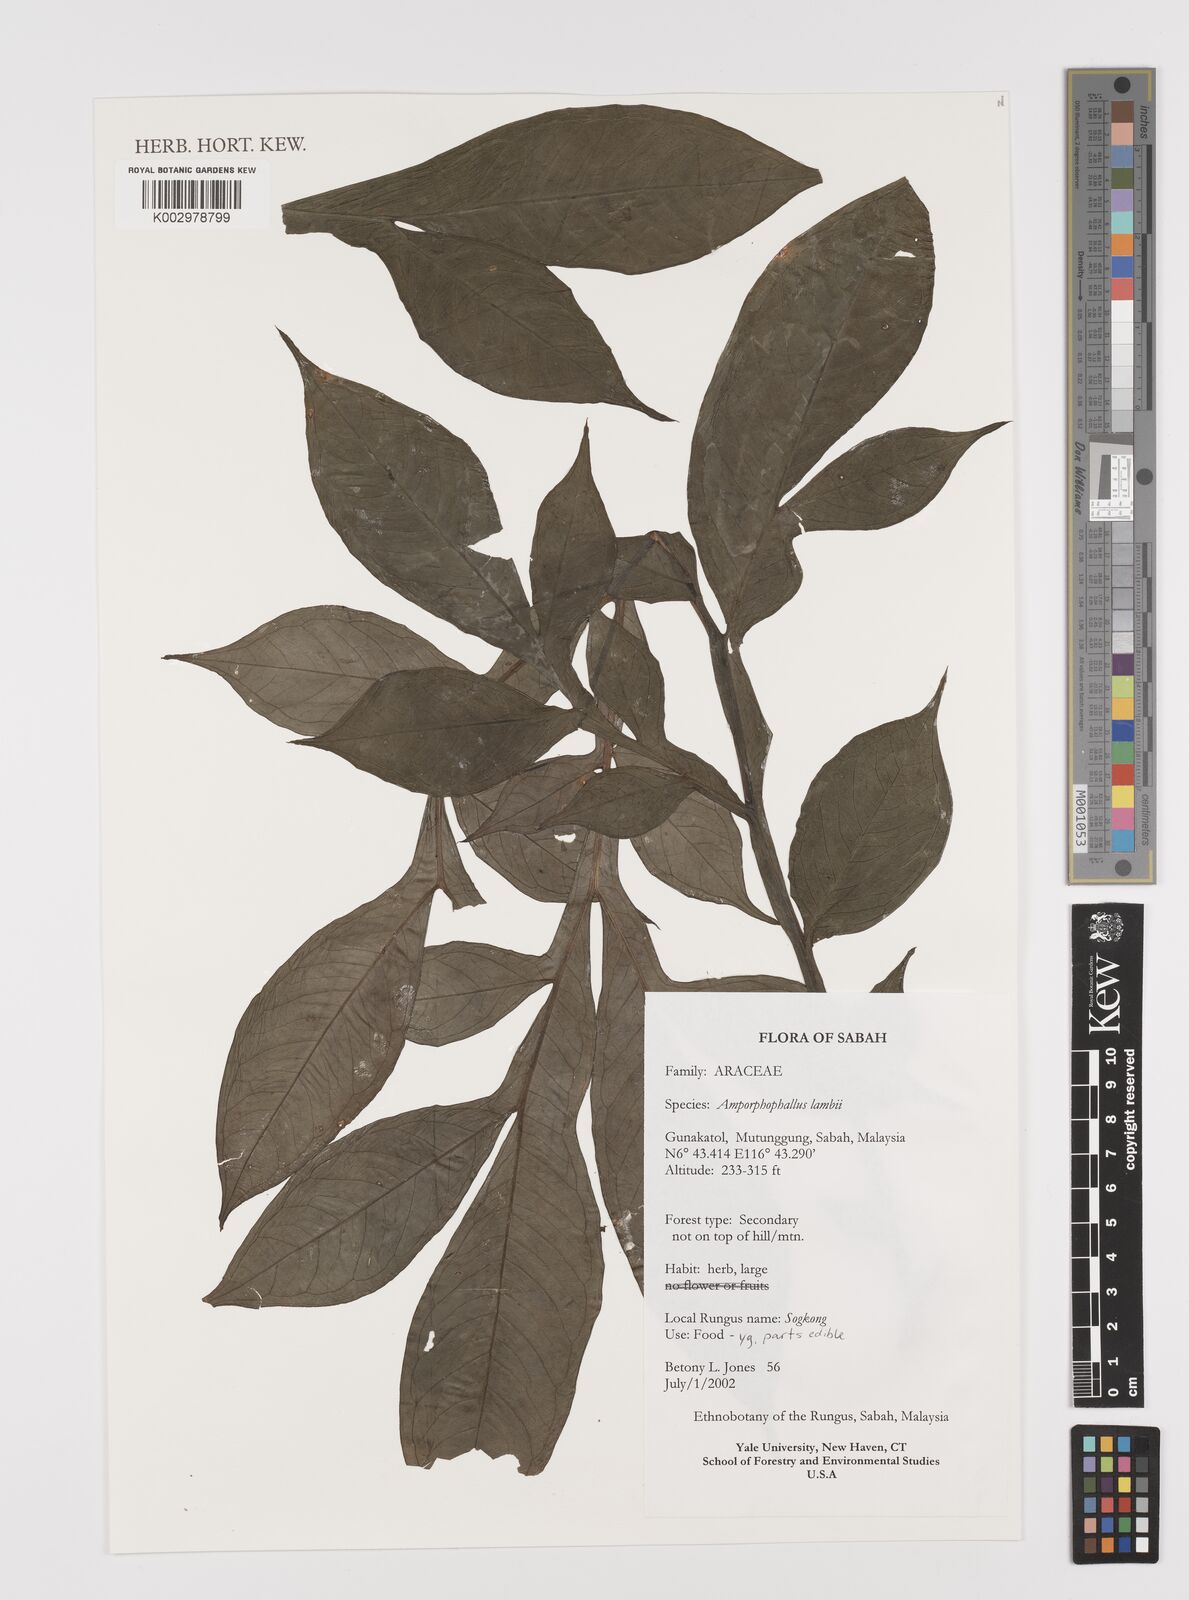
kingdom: Plantae
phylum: Tracheophyta
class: Liliopsida
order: Alismatales
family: Araceae
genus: Amorphophallus
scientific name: Amorphophallus lambii
